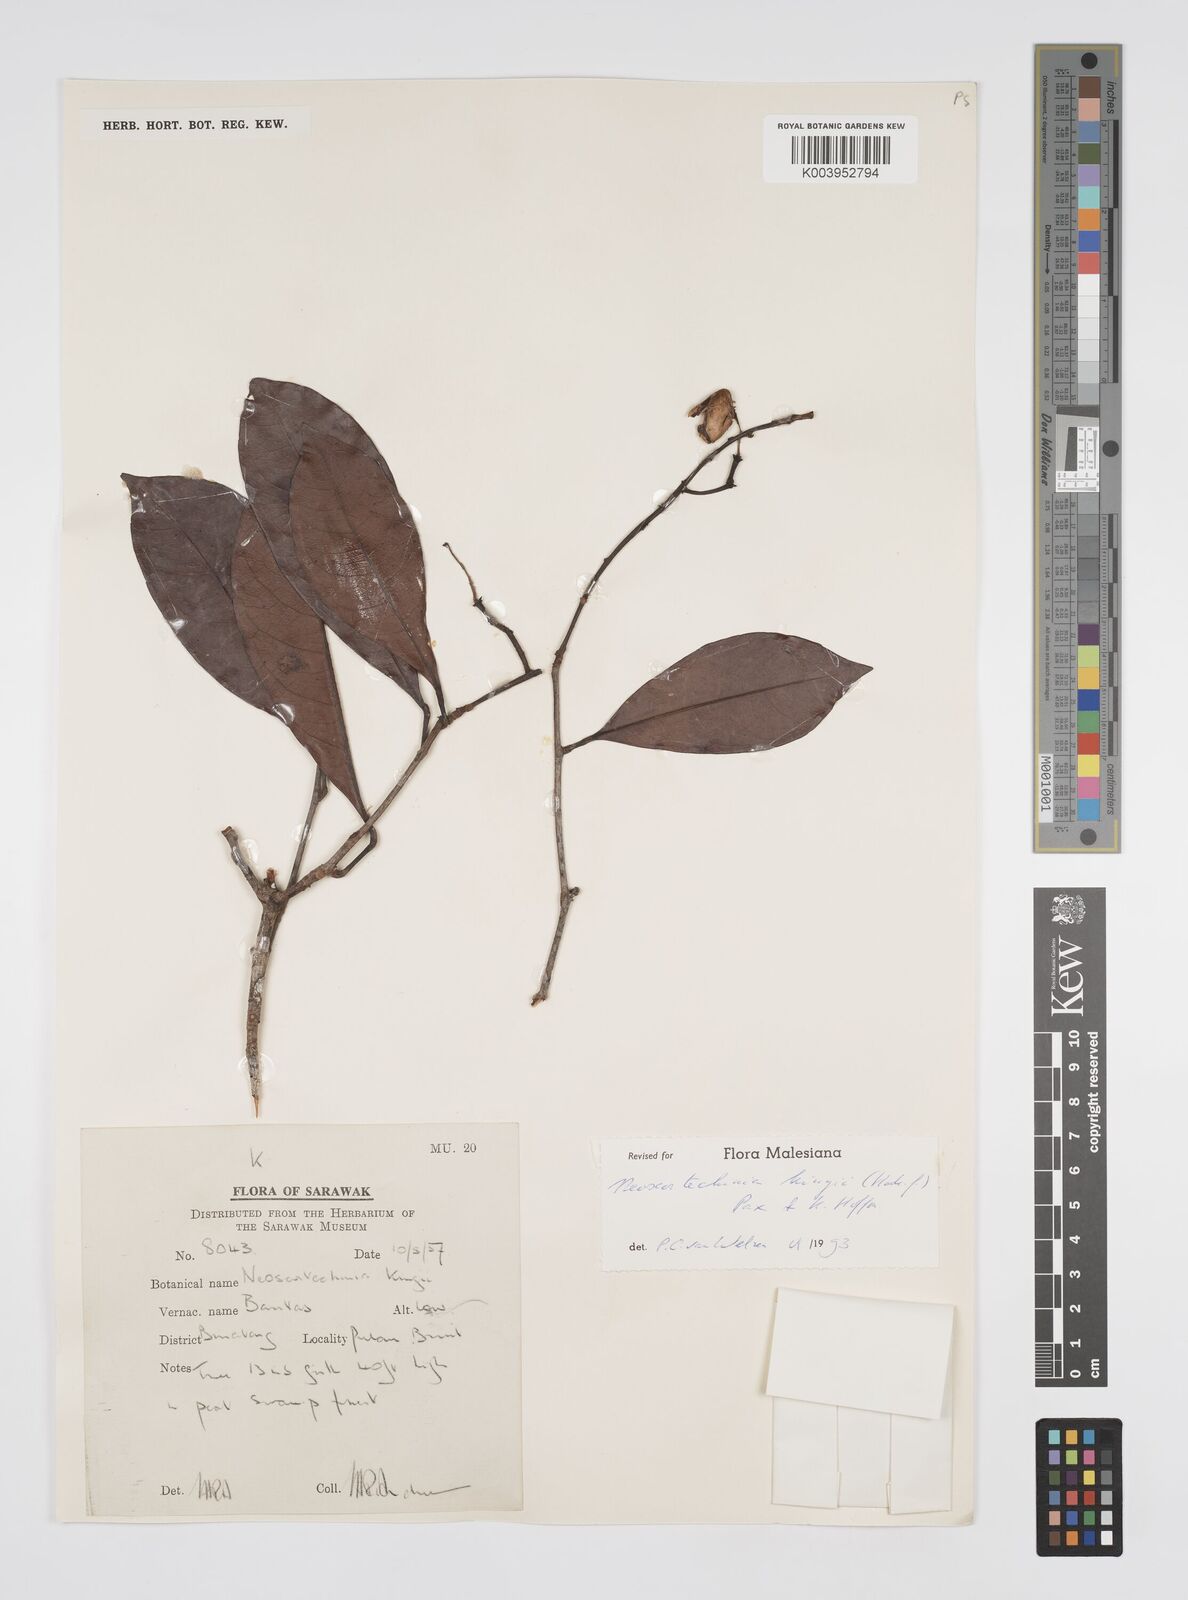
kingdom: Plantae
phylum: Tracheophyta
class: Magnoliopsida
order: Malpighiales
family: Euphorbiaceae
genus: Neoscortechinia
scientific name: Neoscortechinia kingii
